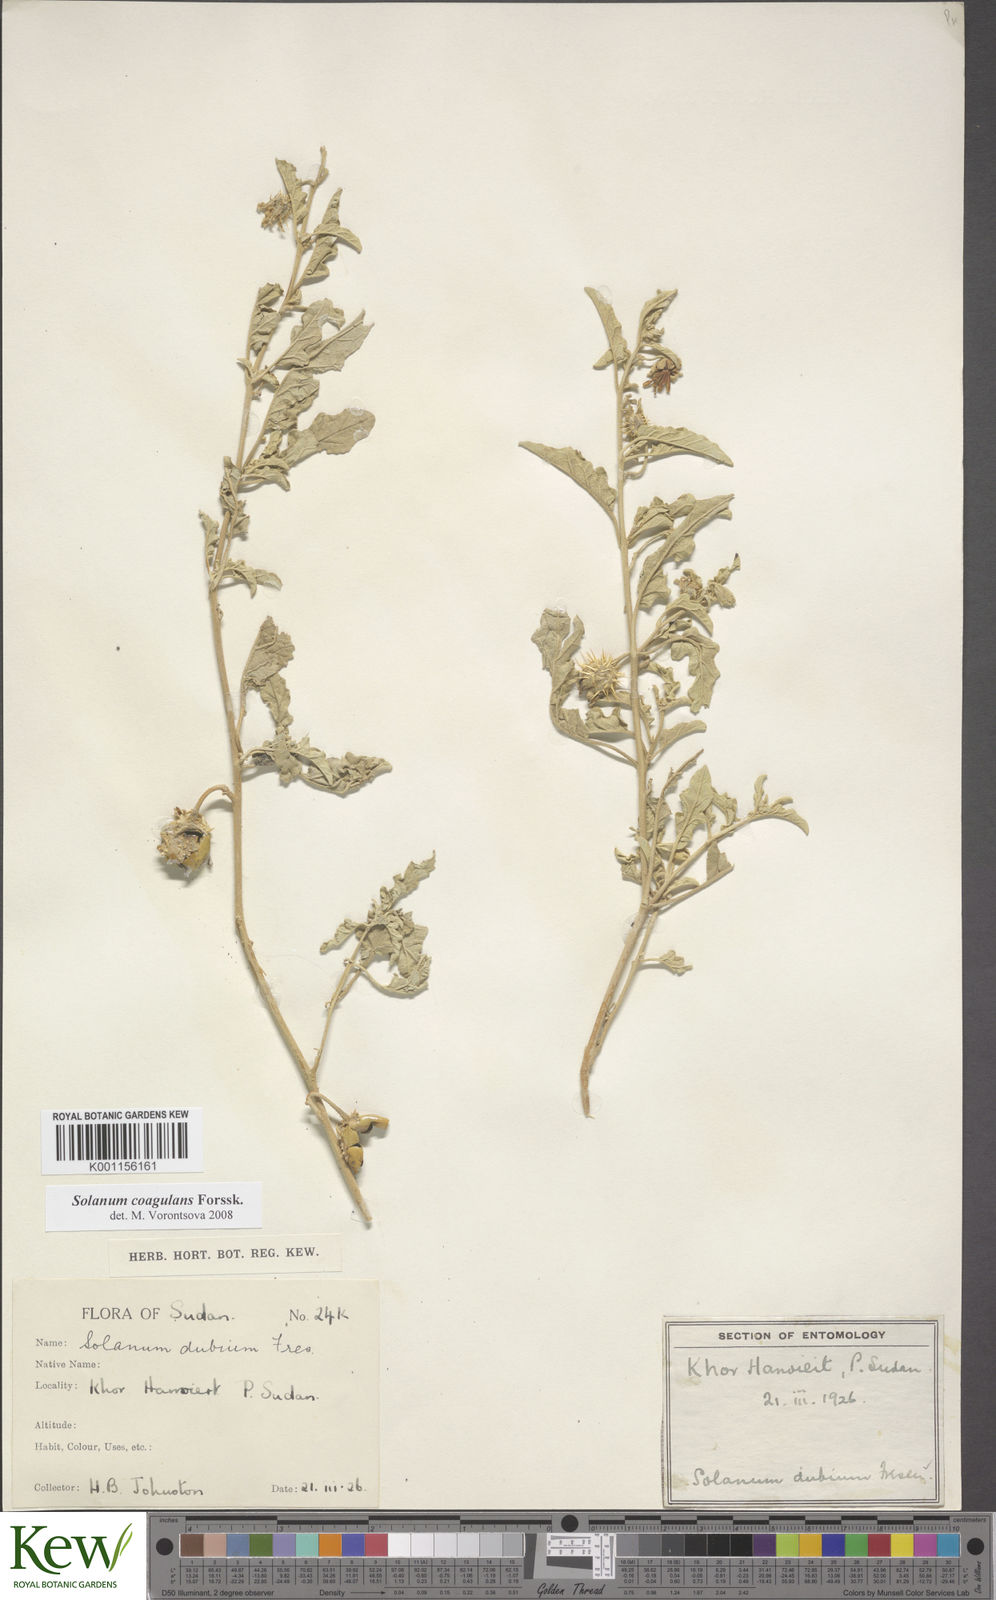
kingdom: Plantae
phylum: Tracheophyta
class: Magnoliopsida
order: Solanales
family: Solanaceae
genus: Solanum
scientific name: Solanum coagulans
